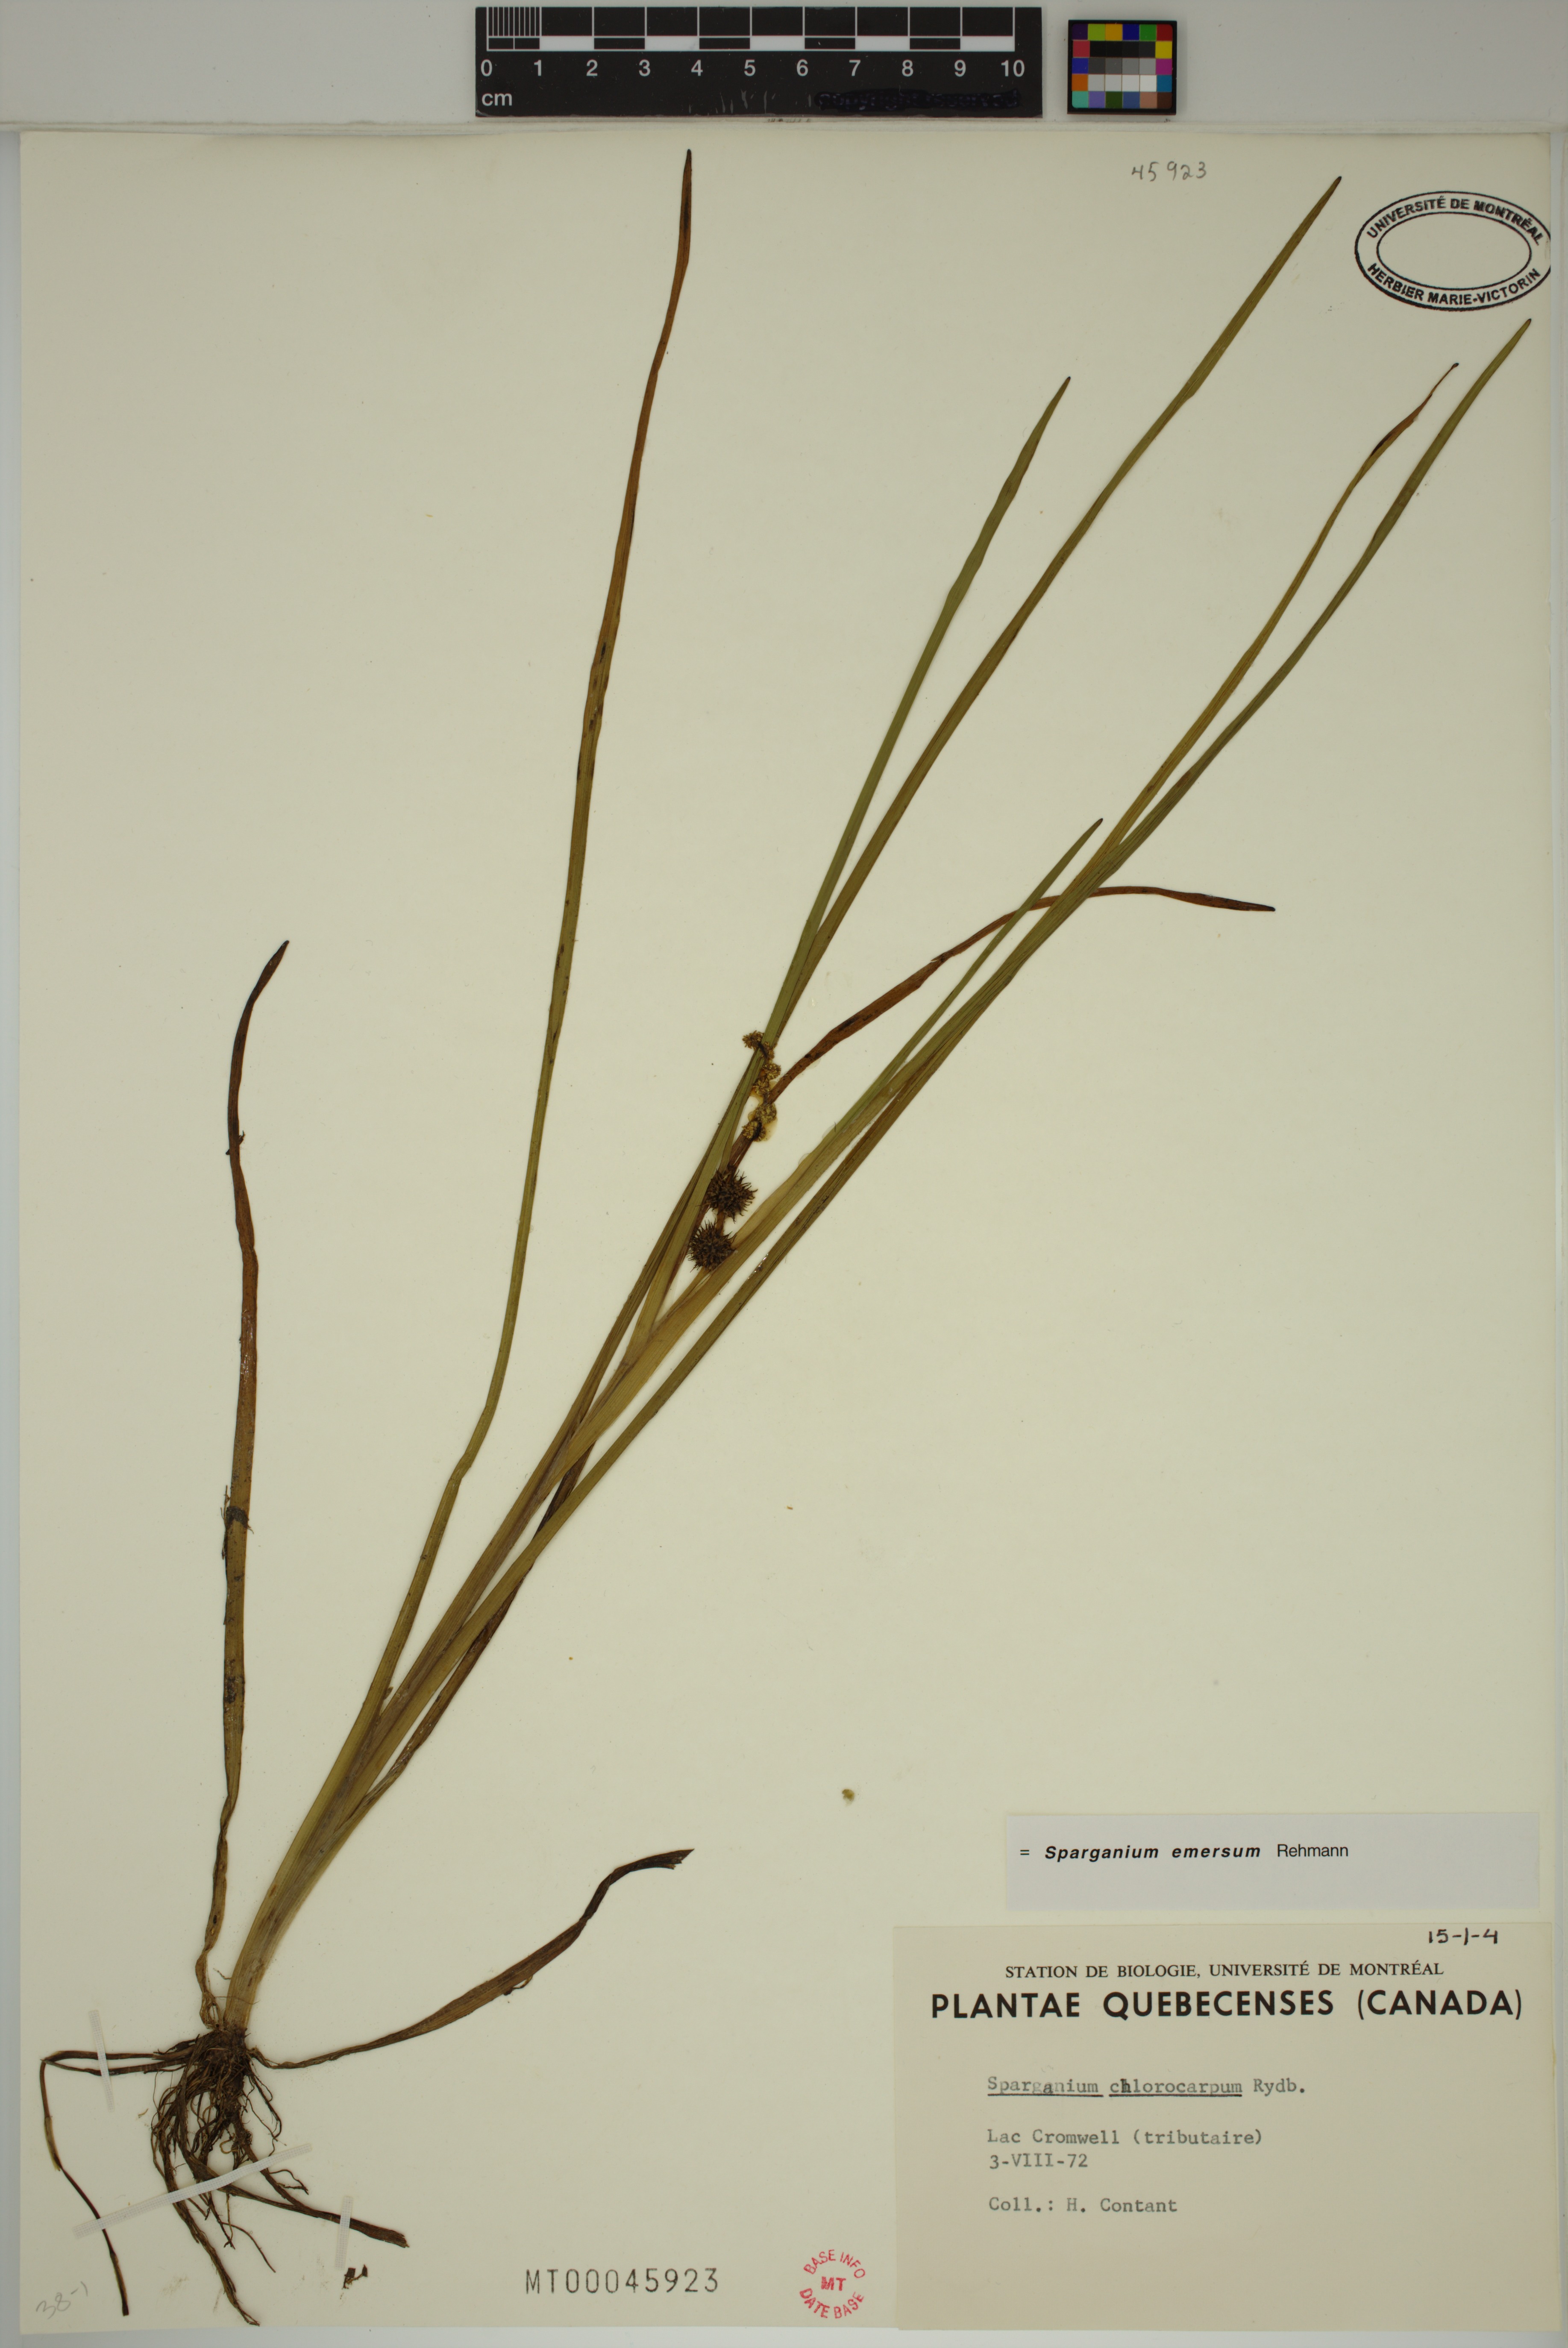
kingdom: Plantae
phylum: Tracheophyta
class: Liliopsida
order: Poales
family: Typhaceae
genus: Sparganium
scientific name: Sparganium emersum
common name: Unbranched bur-reed
